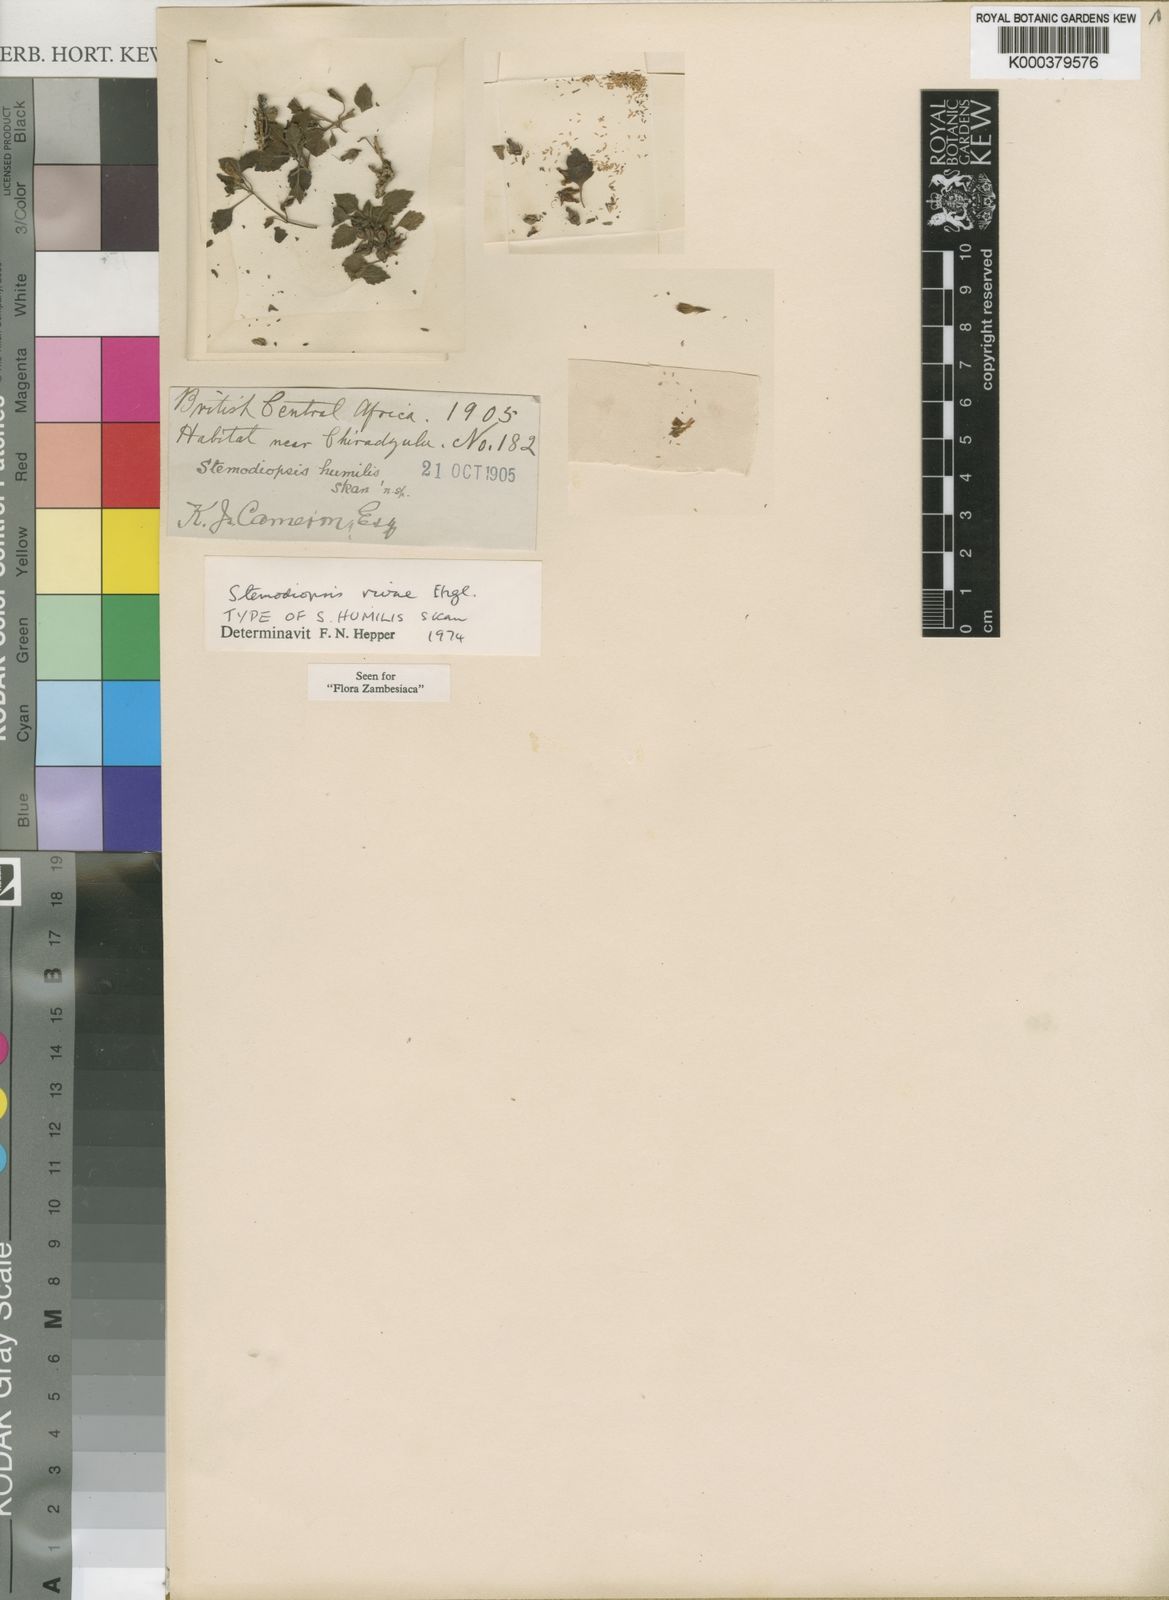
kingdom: Plantae
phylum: Tracheophyta
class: Magnoliopsida
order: Lamiales
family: Linderniaceae
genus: Stemodiopsis
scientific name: Stemodiopsis rivae
